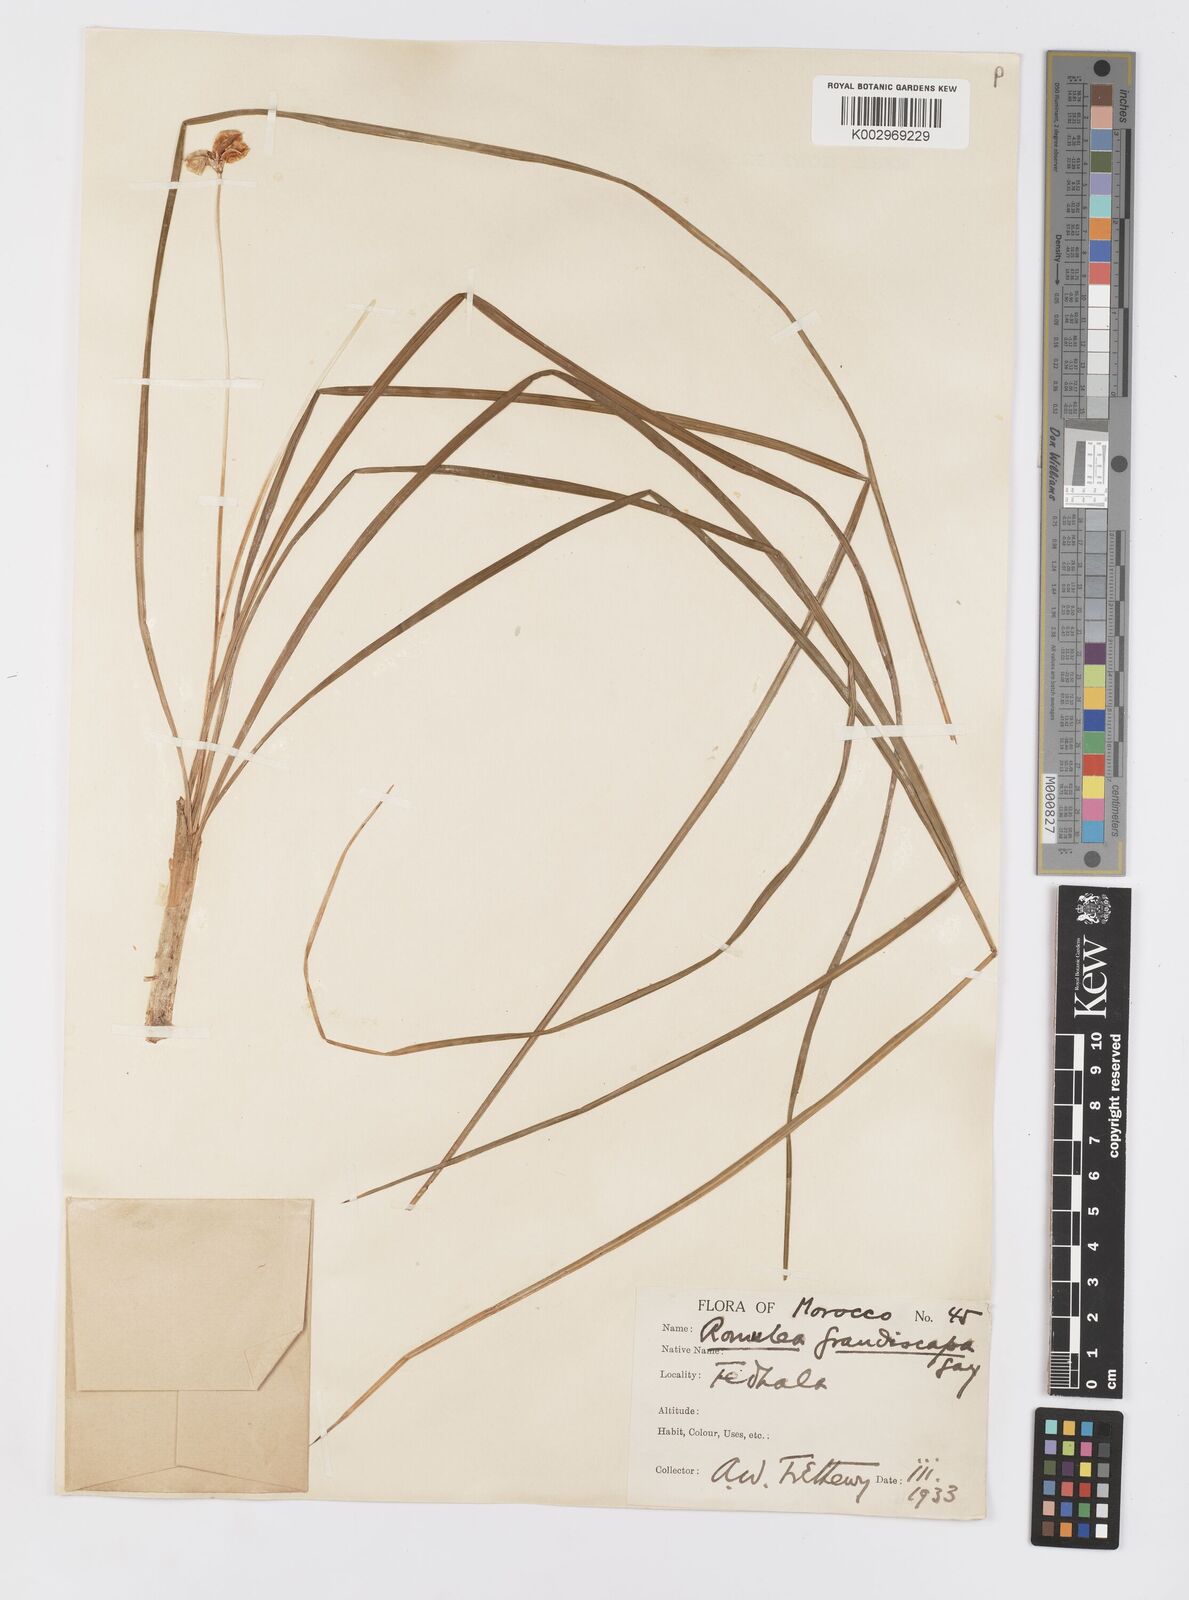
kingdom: Plantae
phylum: Tracheophyta
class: Liliopsida
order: Asparagales
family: Iridaceae
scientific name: Iridaceae
